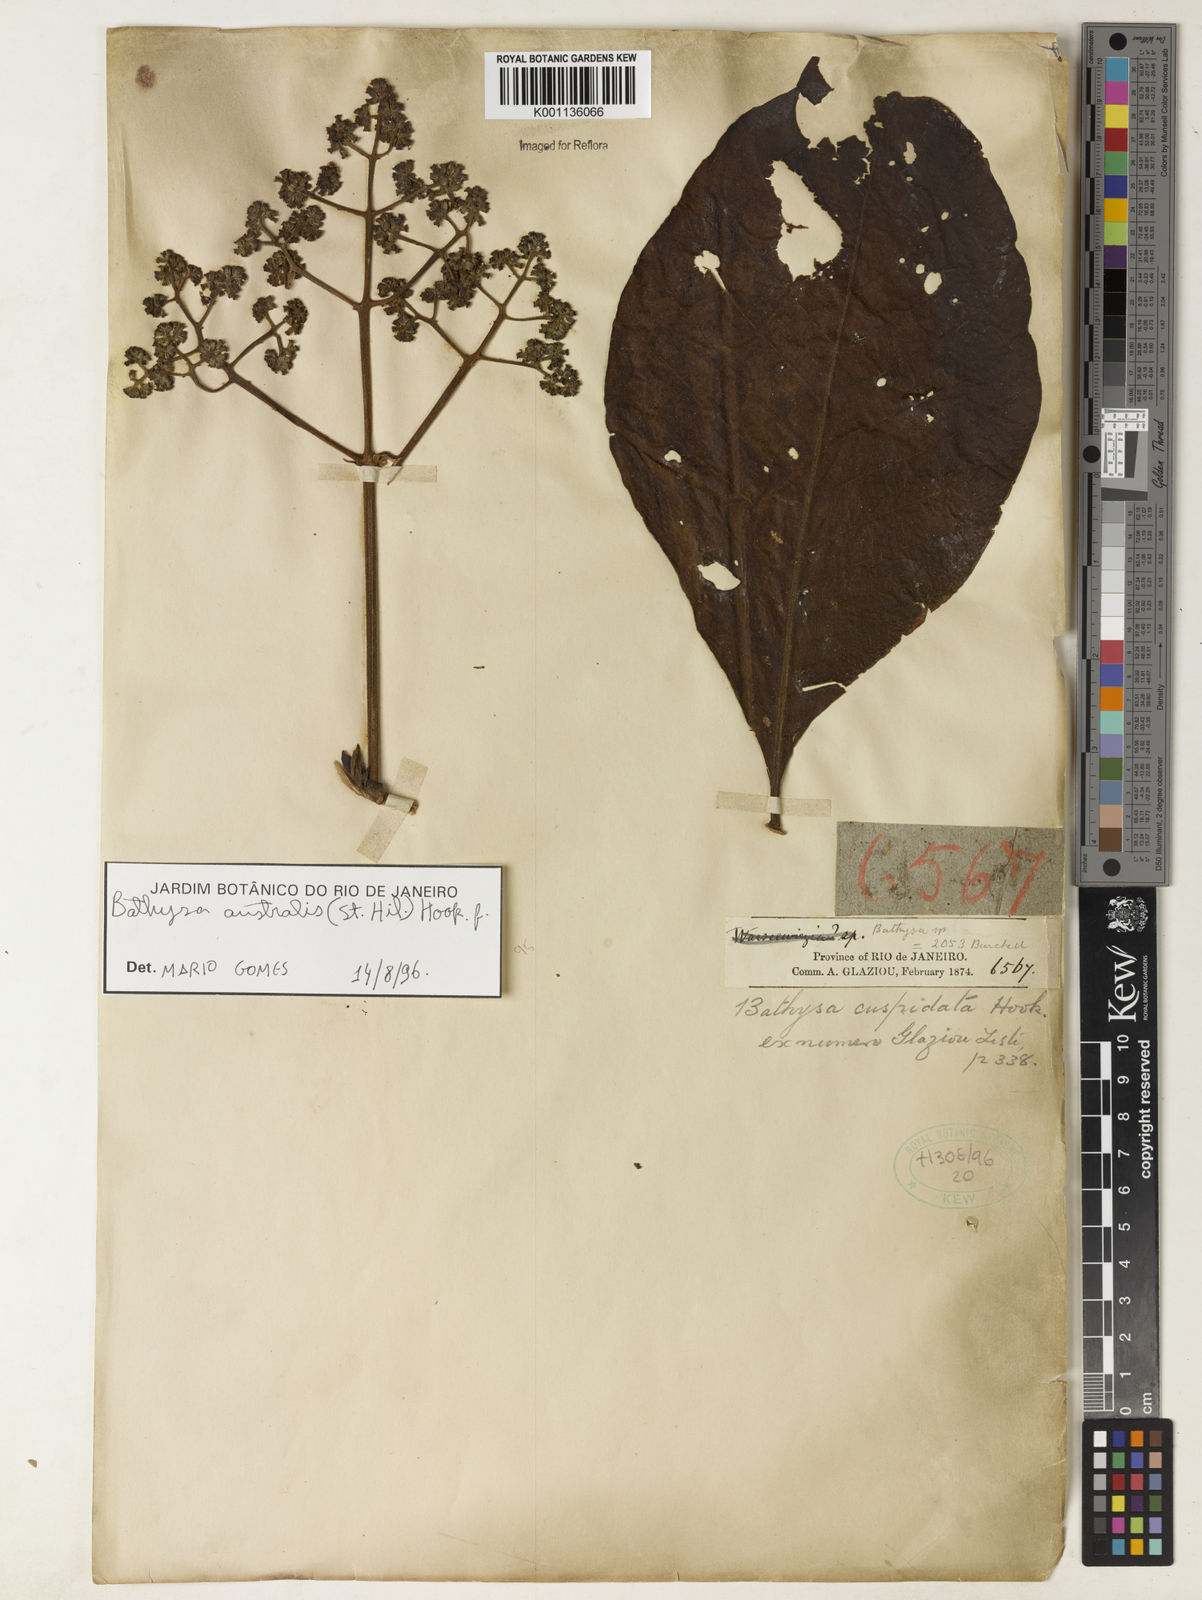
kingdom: Plantae
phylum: Tracheophyta
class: Magnoliopsida
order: Gentianales
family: Rubiaceae
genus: Bathysa
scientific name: Bathysa australis
